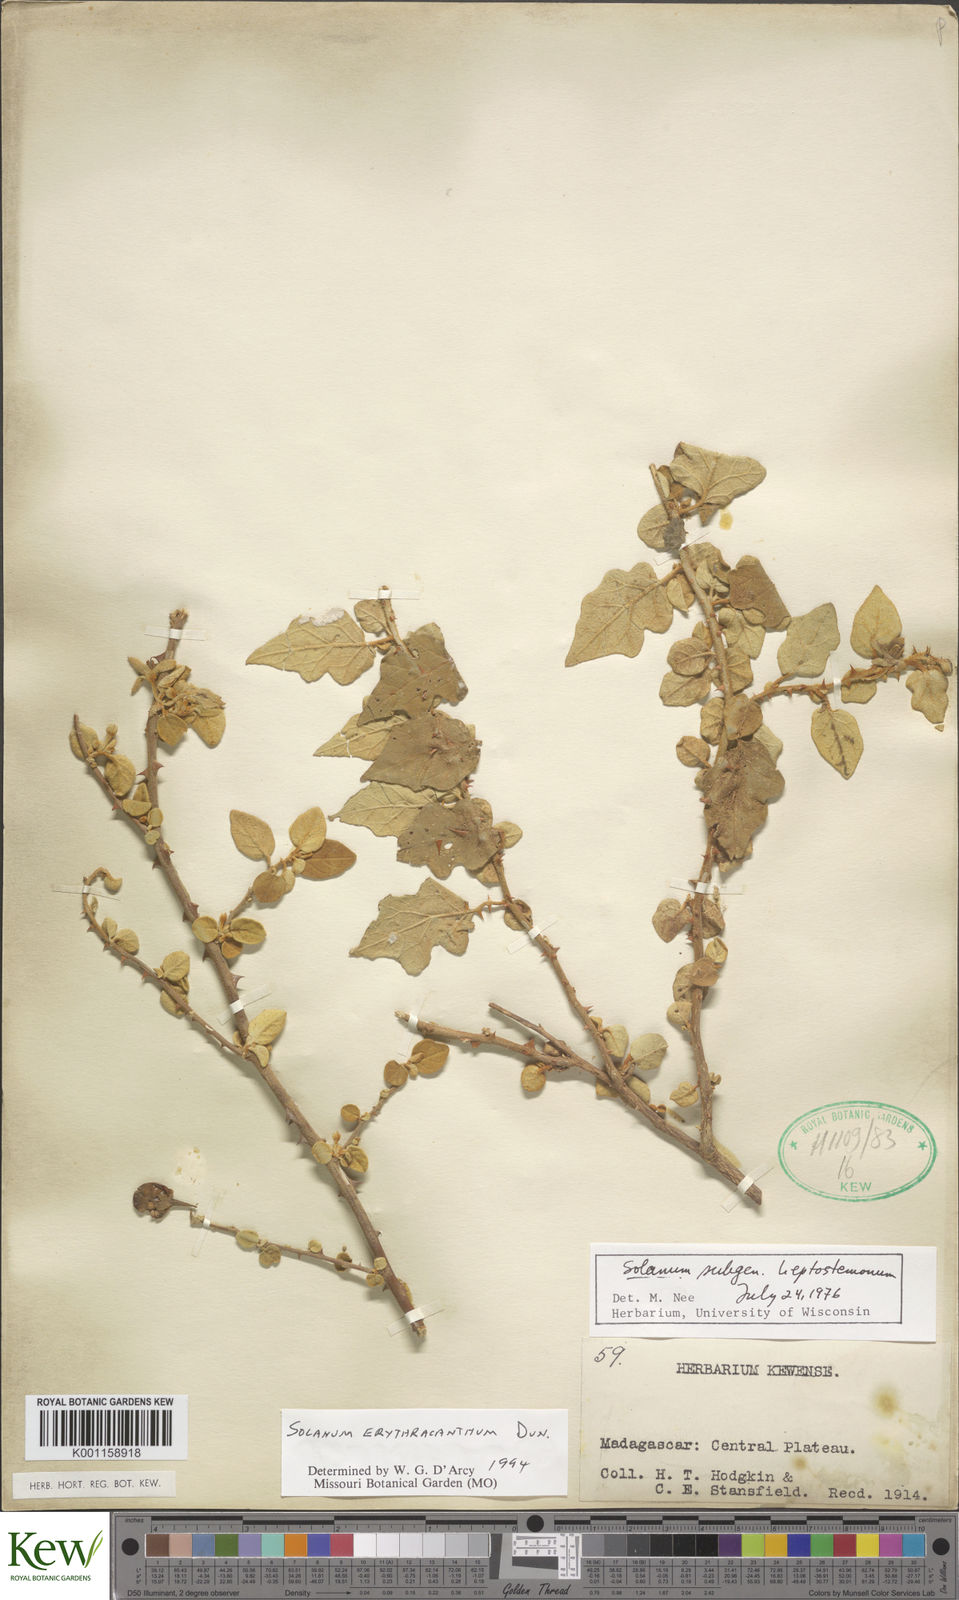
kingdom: Plantae
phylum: Tracheophyta
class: Magnoliopsida
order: Solanales
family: Solanaceae
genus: Solanum
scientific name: Solanum erythracanthum
